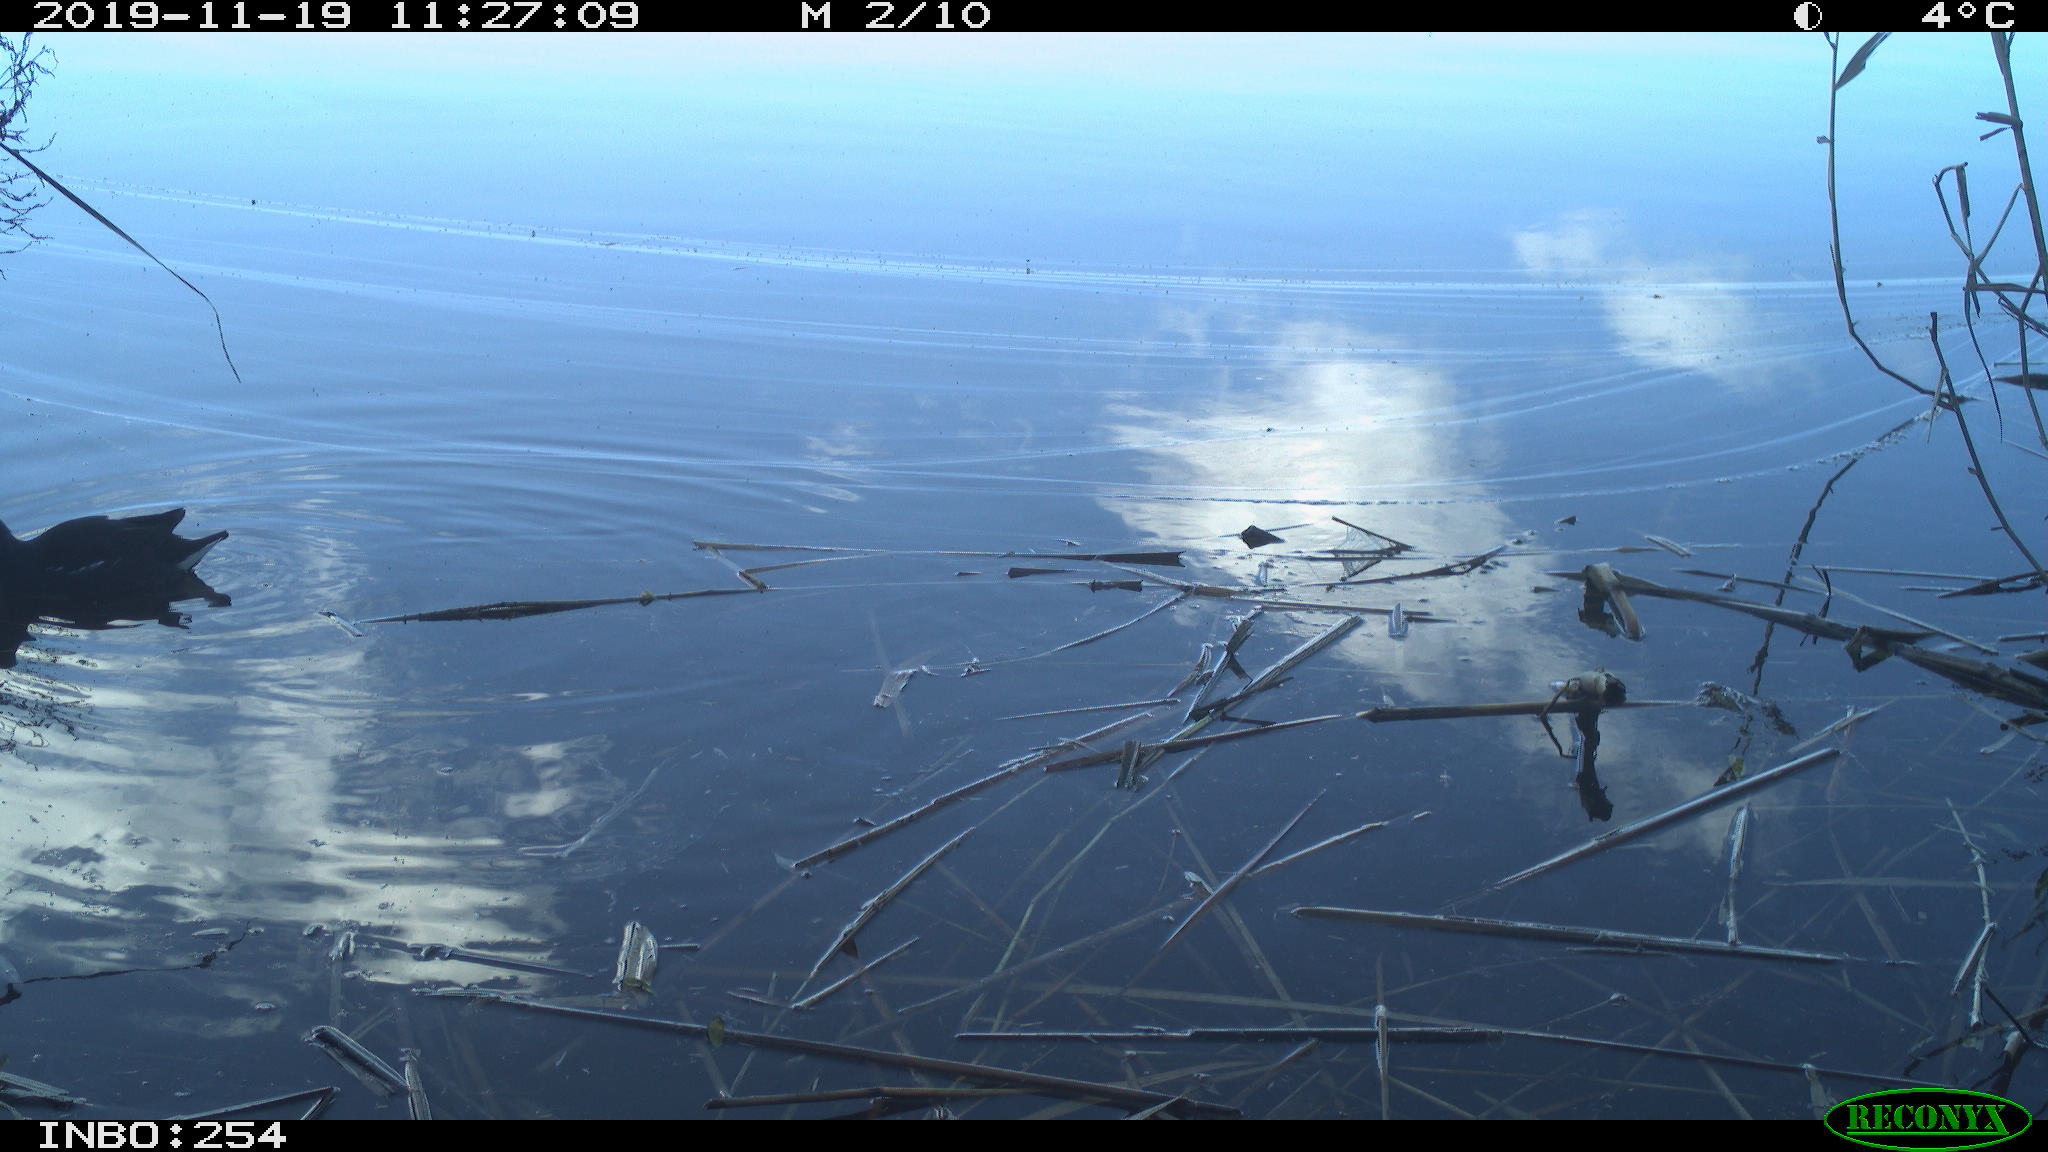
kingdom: Animalia
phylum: Chordata
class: Aves
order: Gruiformes
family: Rallidae
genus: Gallinula
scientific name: Gallinula chloropus
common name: Common moorhen
